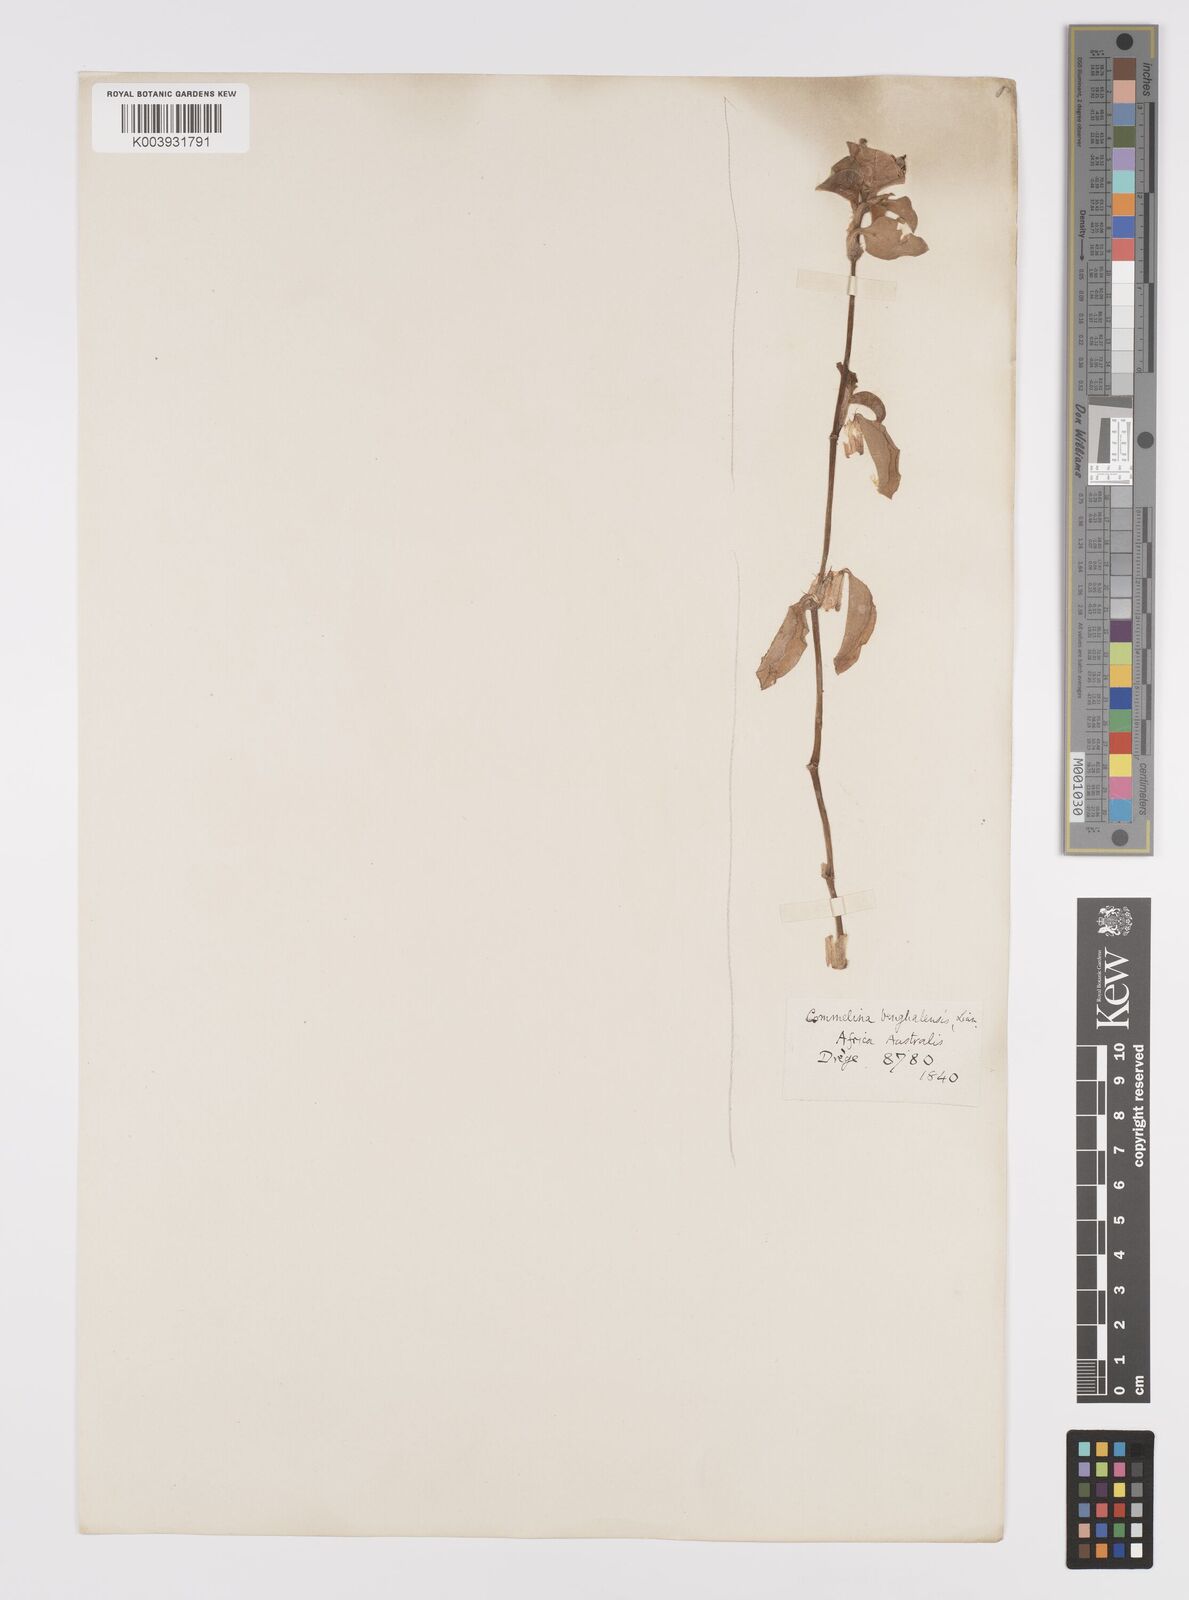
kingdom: Plantae
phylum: Tracheophyta
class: Liliopsida
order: Commelinales
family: Commelinaceae
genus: Commelina
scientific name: Commelina benghalensis
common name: Jio
